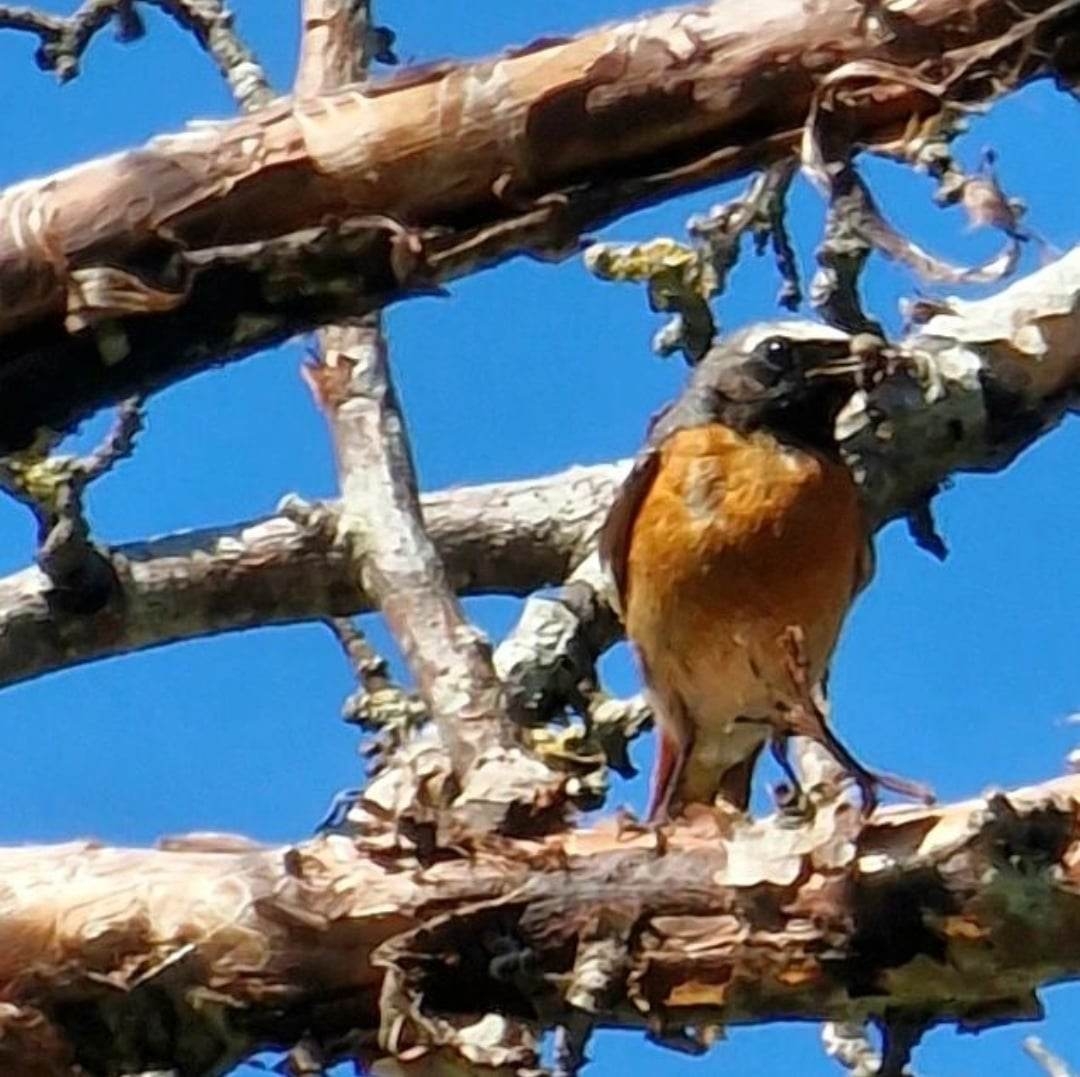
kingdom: Animalia
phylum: Chordata
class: Aves
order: Passeriformes
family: Muscicapidae
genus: Phoenicurus
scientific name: Phoenicurus phoenicurus
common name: Rødstjert
